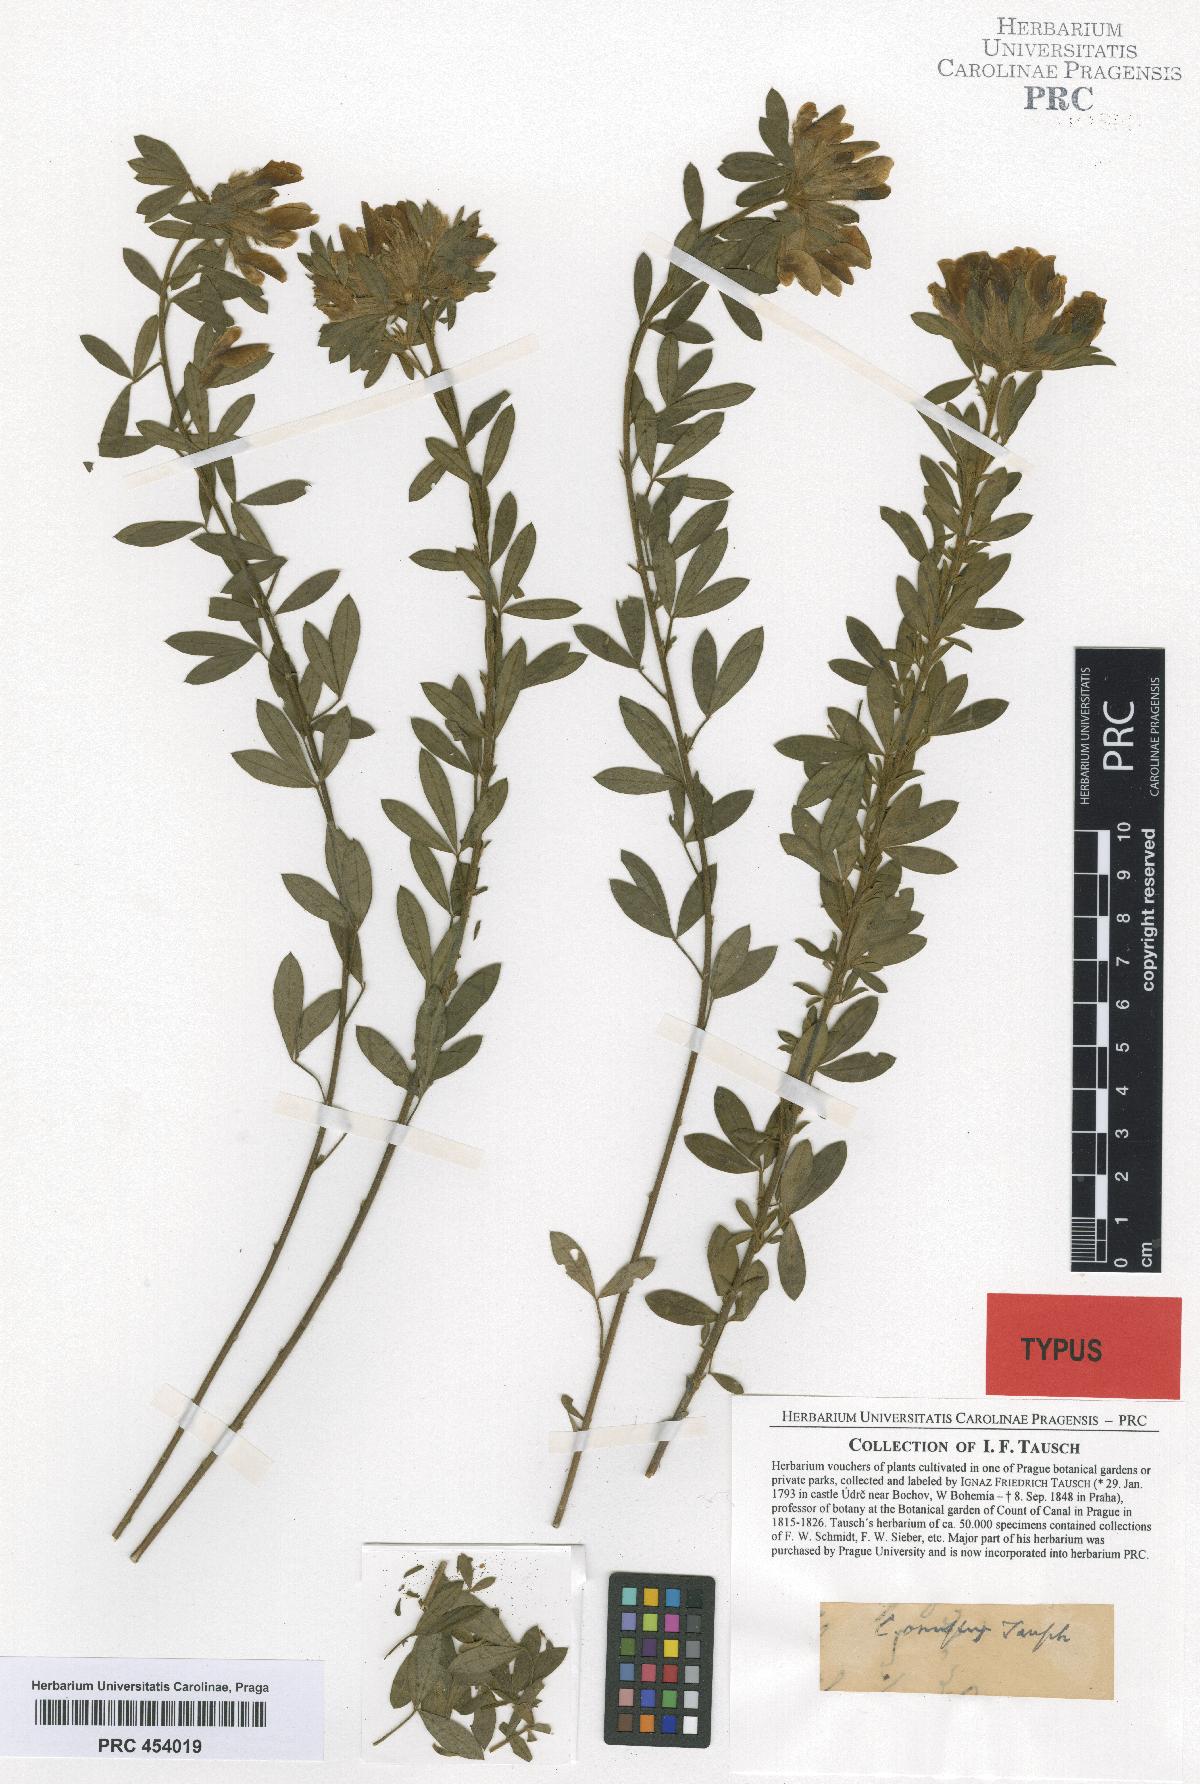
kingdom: Plantae
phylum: Tracheophyta
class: Magnoliopsida
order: Fabales
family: Fabaceae
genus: Chamaecytisus
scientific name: Chamaecytisus supinus
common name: Clustered broom
